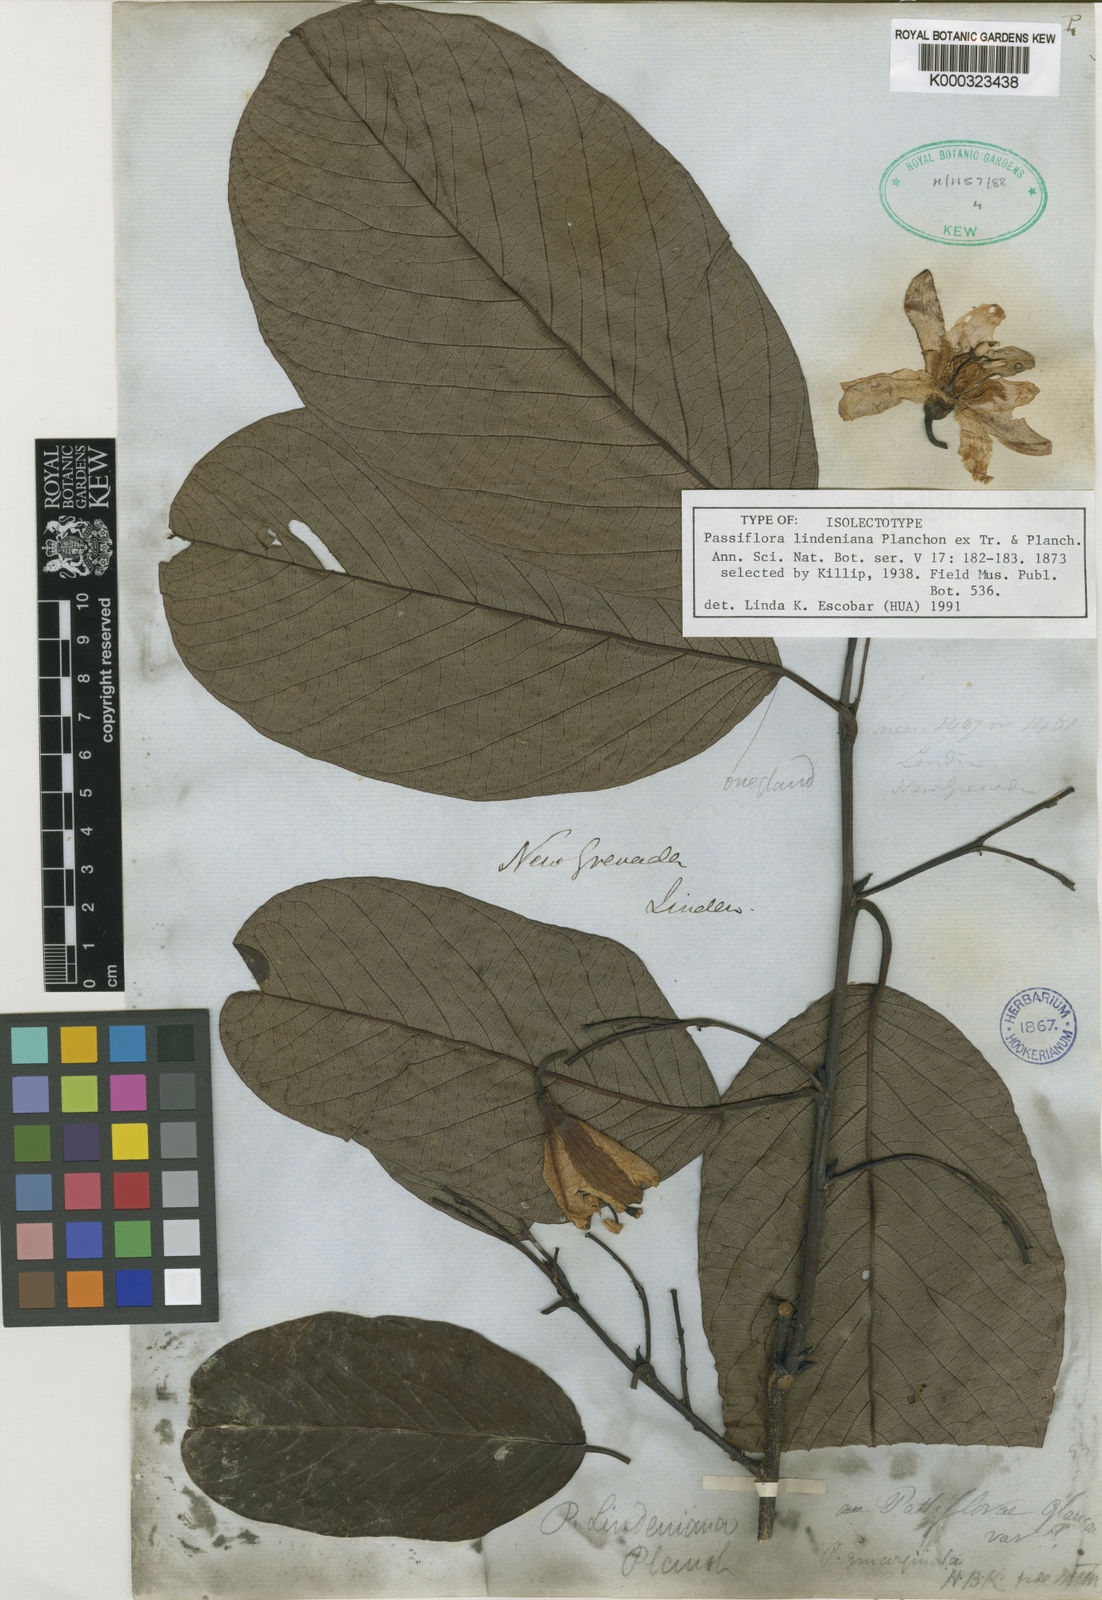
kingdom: Plantae
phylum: Tracheophyta
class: Magnoliopsida
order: Malpighiales
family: Passifloraceae
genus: Passiflora
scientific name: Passiflora lindeniana
